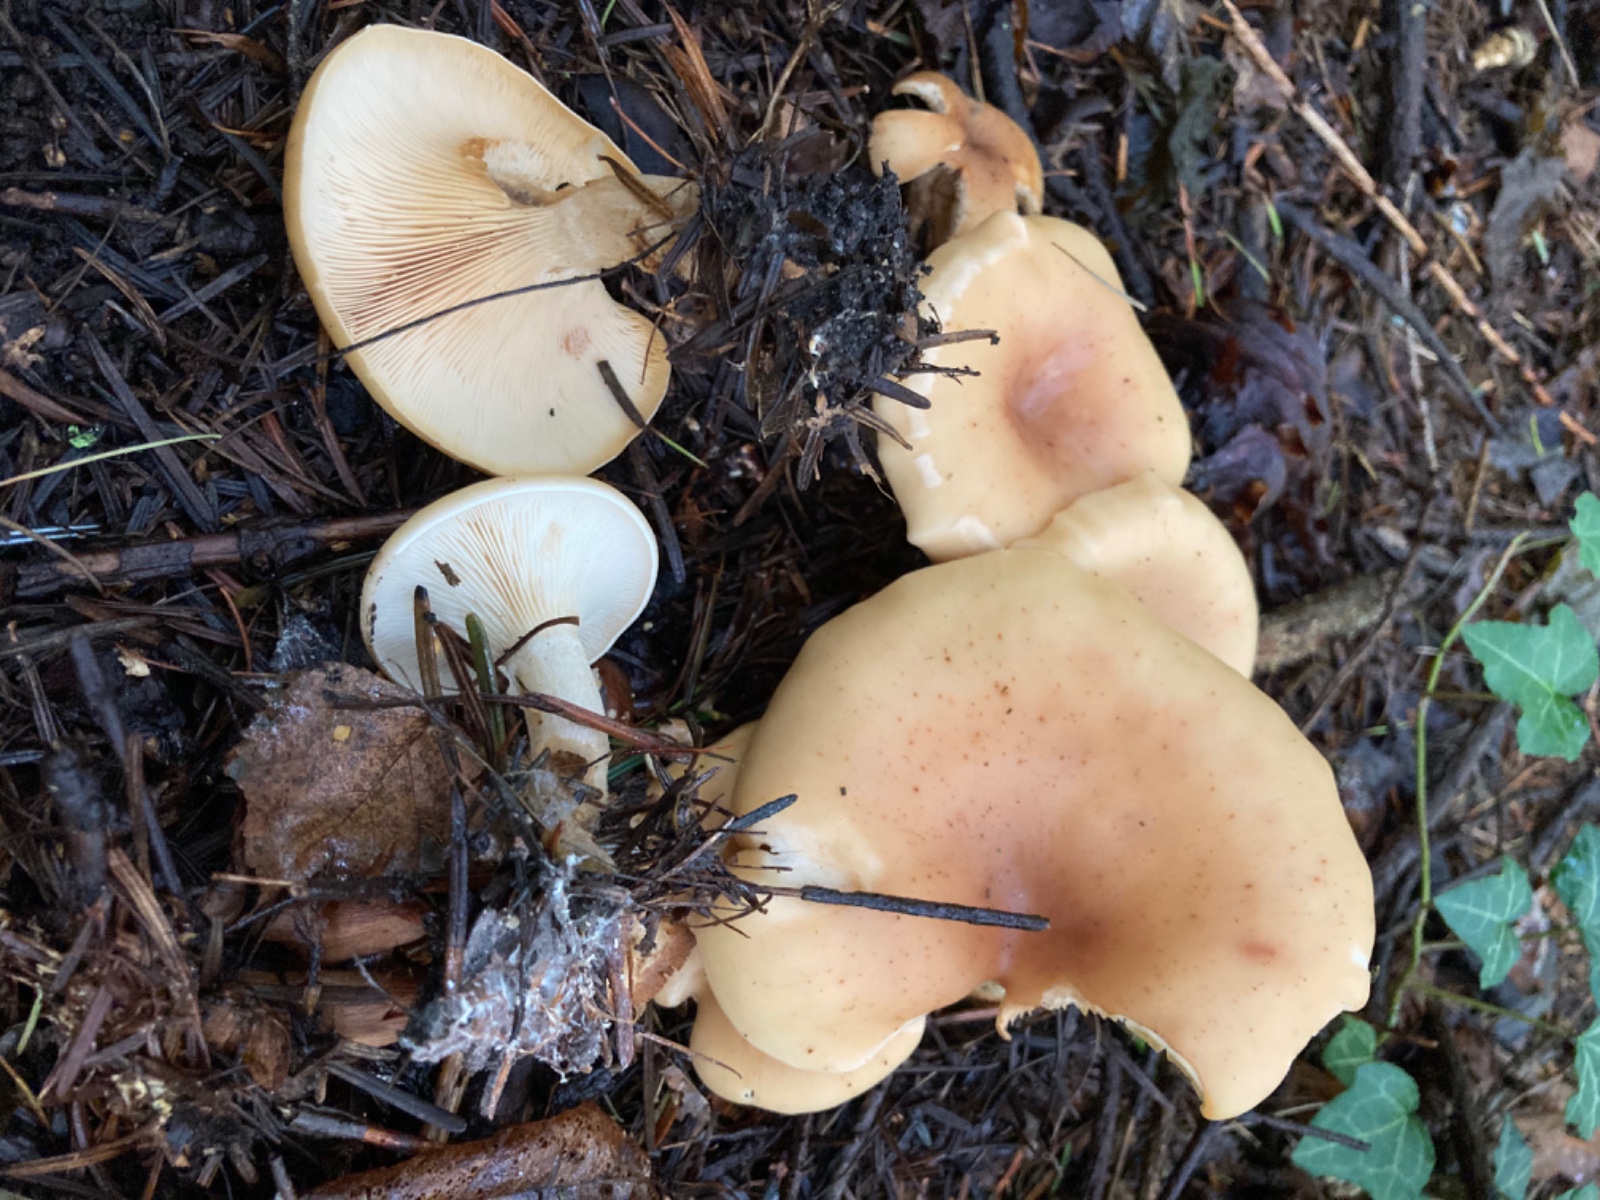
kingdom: Fungi
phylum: Basidiomycota
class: Agaricomycetes
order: Agaricales
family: Tricholomataceae
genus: Paralepista
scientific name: Paralepista flaccida
